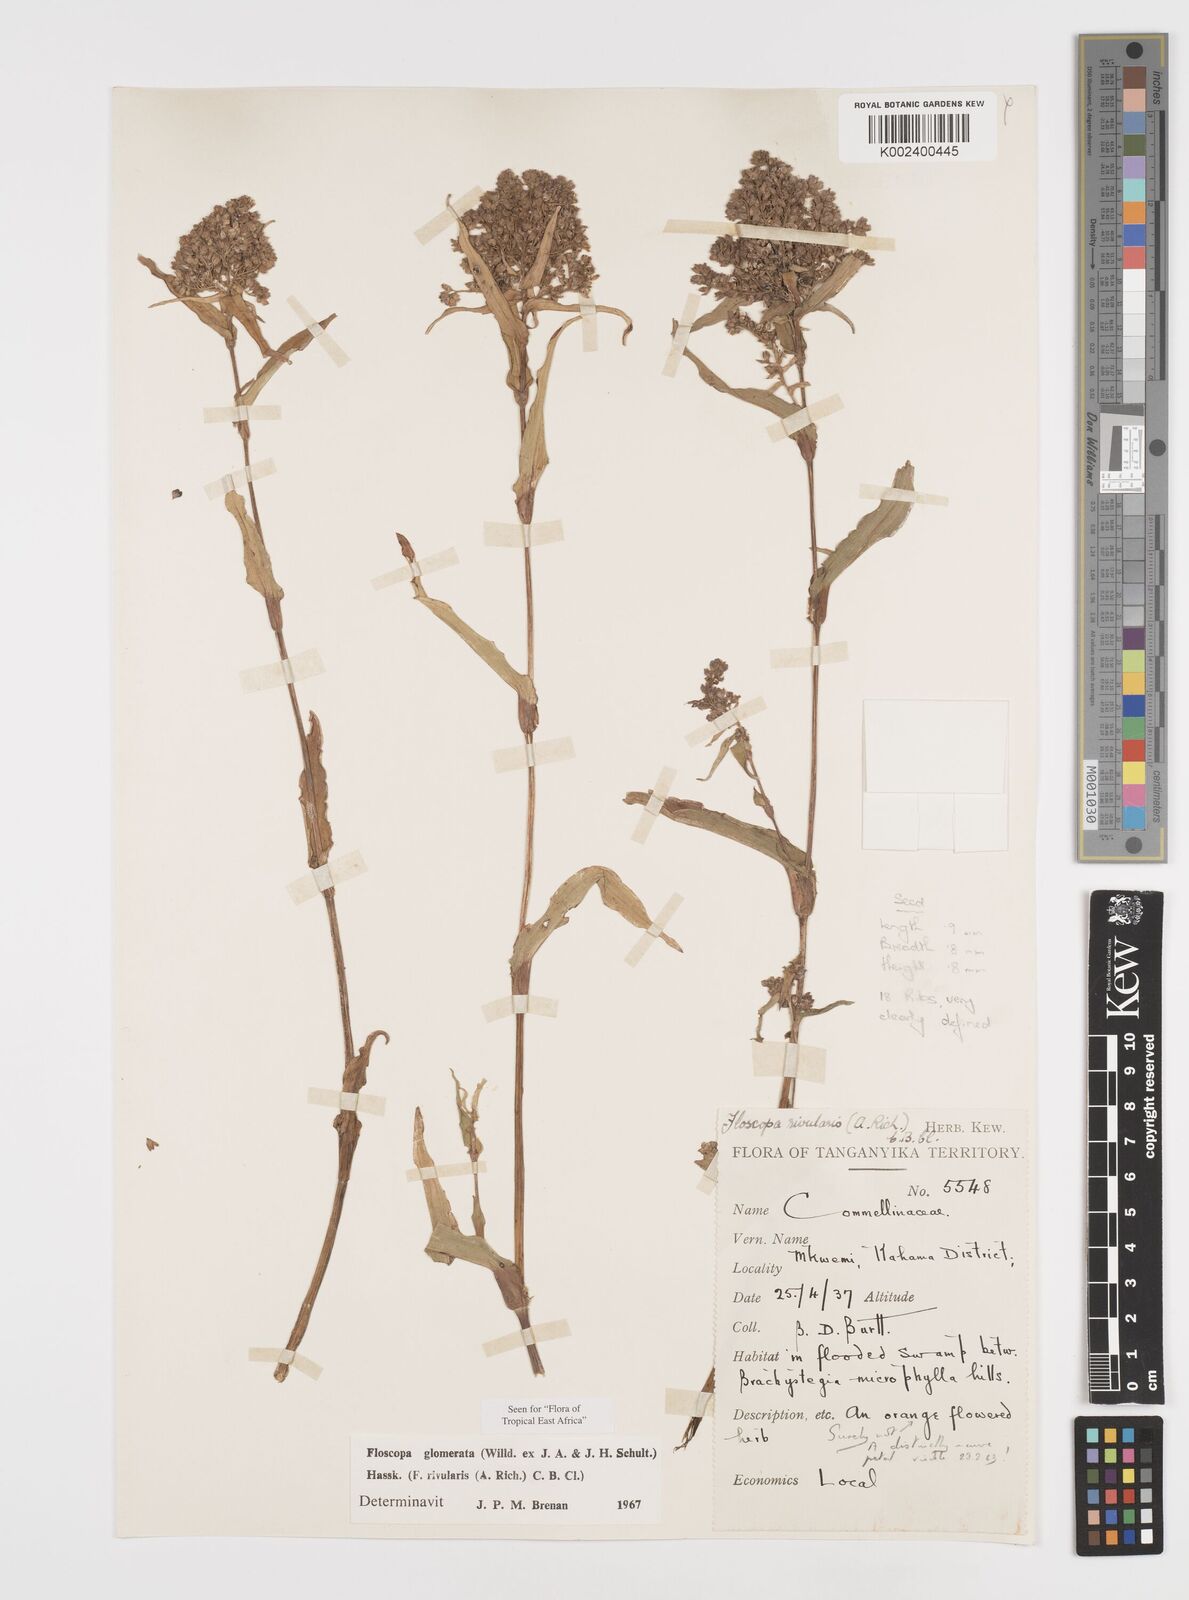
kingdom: Plantae
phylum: Tracheophyta
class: Liliopsida
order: Commelinales
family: Commelinaceae
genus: Floscopa
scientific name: Floscopa glomerata
